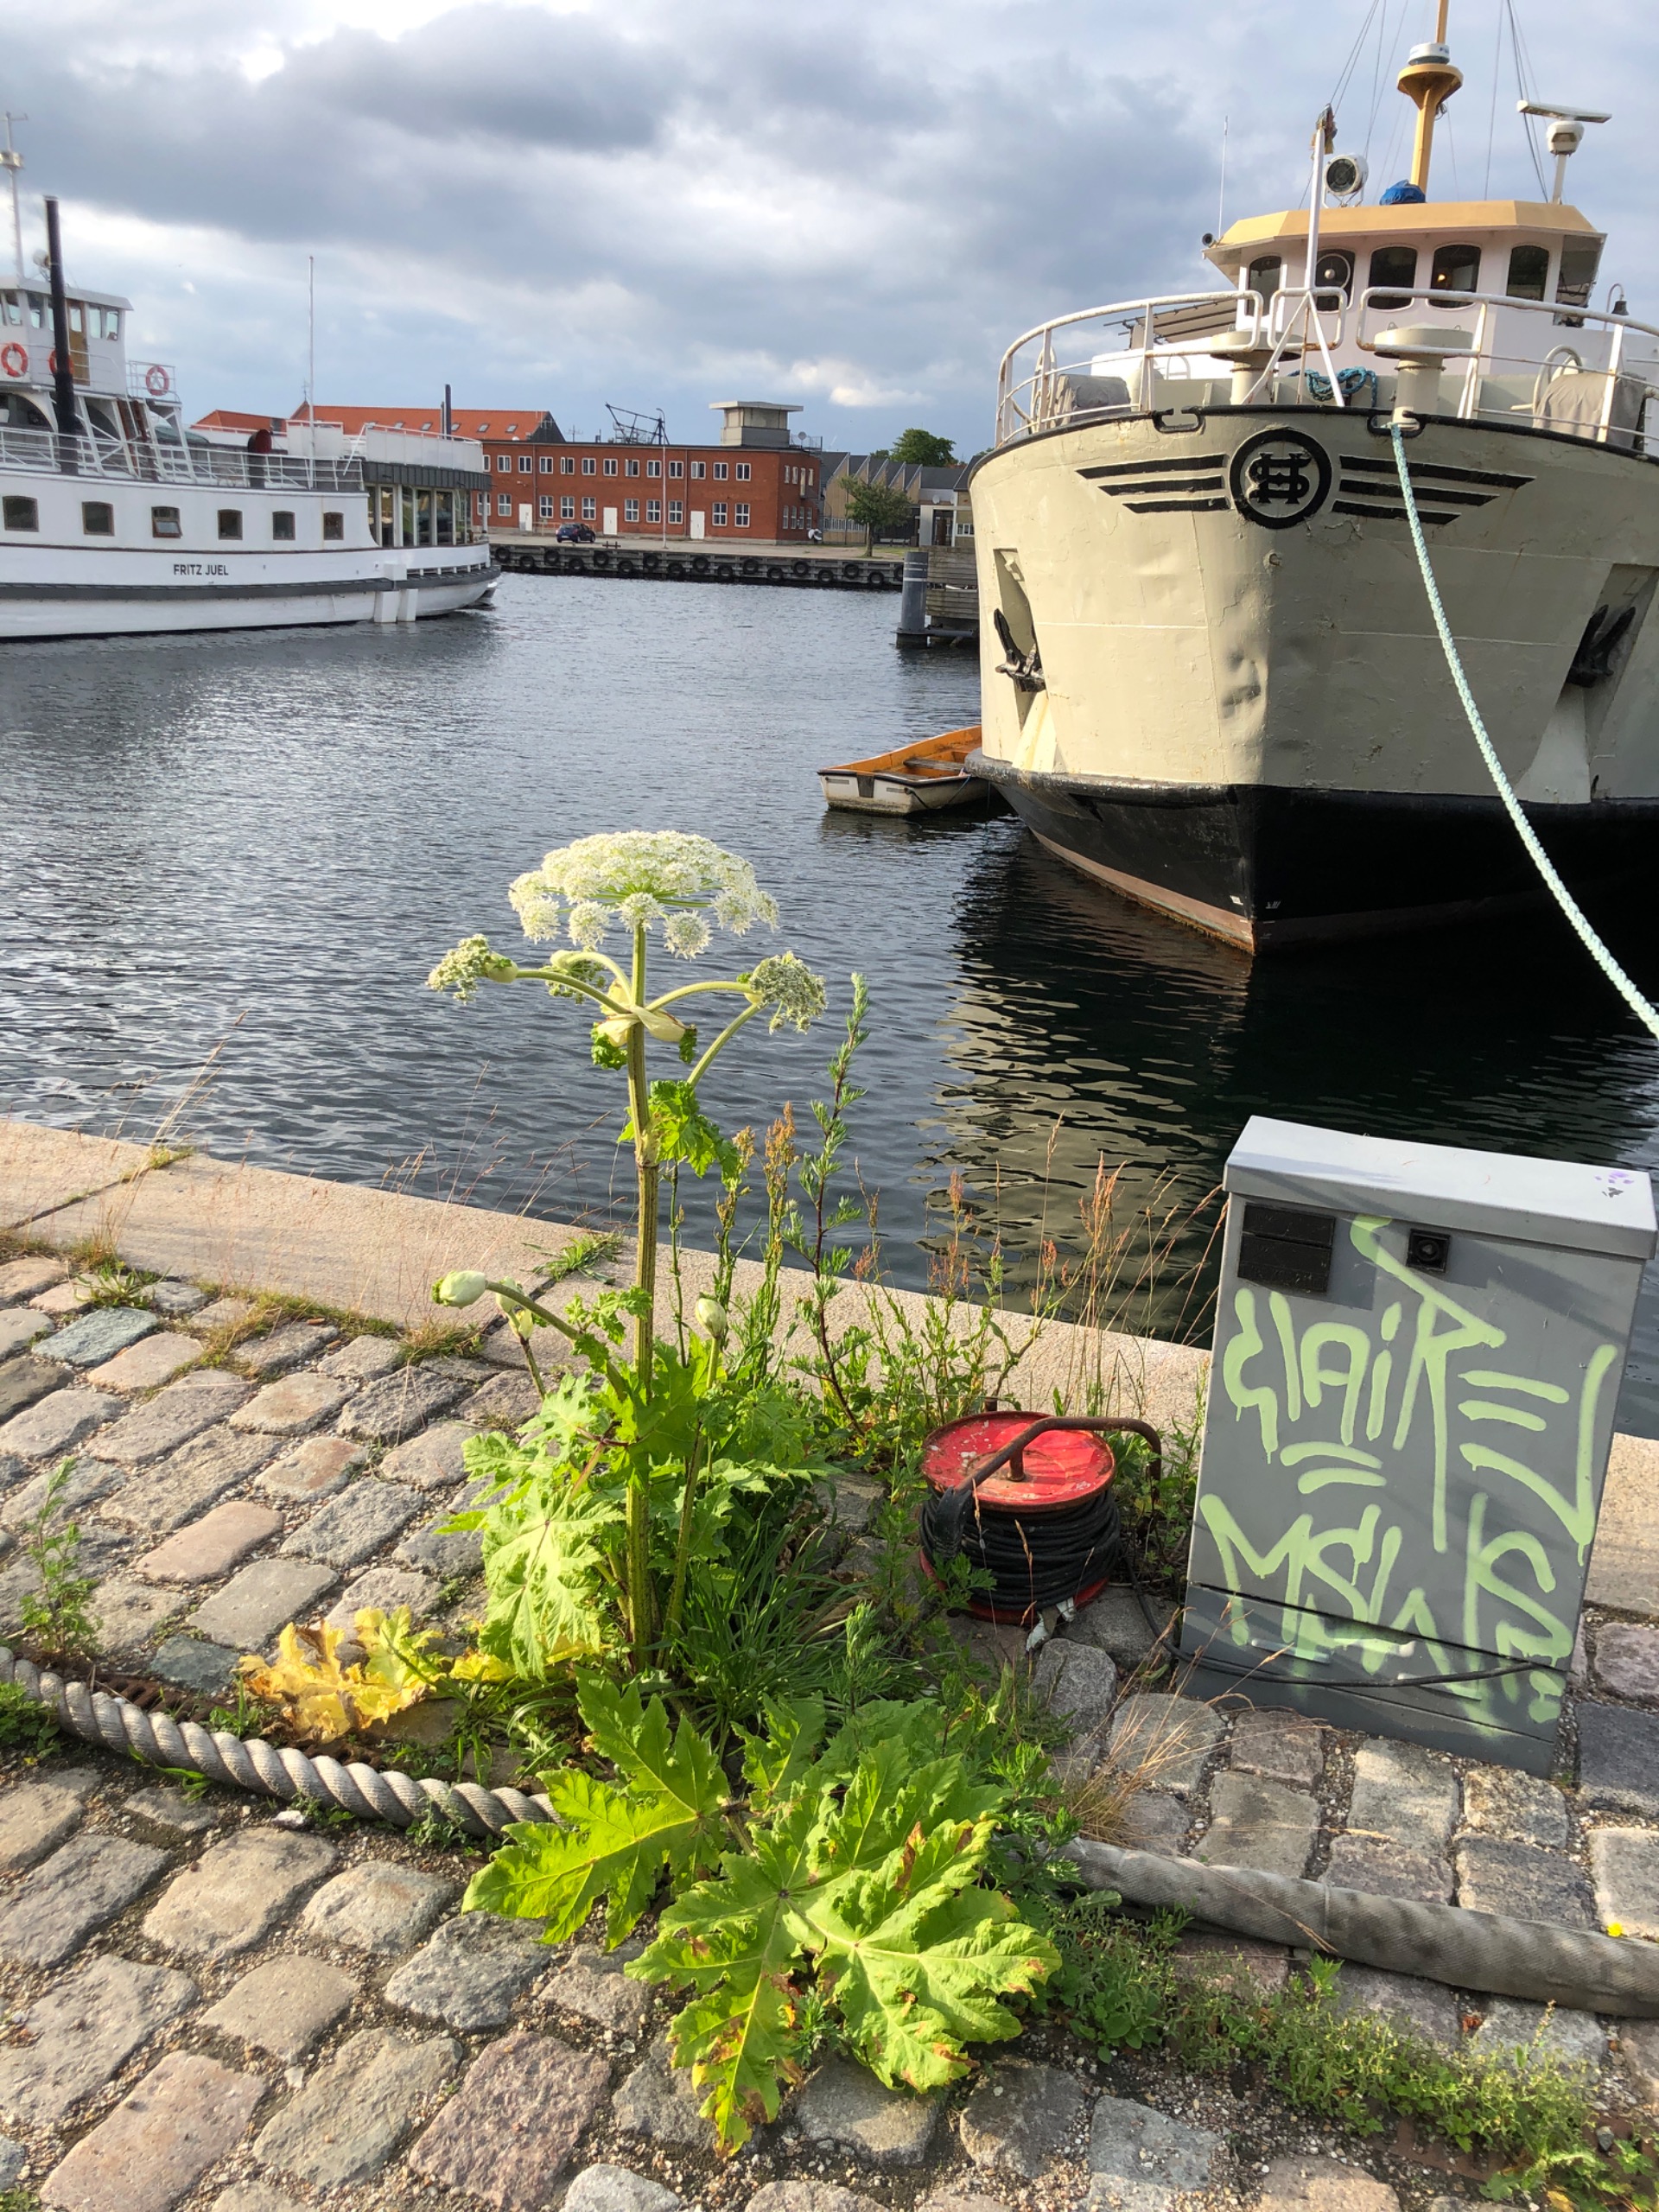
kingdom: Plantae
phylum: Tracheophyta
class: Magnoliopsida
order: Apiales
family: Apiaceae
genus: Heracleum
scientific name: Heracleum mantegazzianum
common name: Kæmpe-bjørneklo
